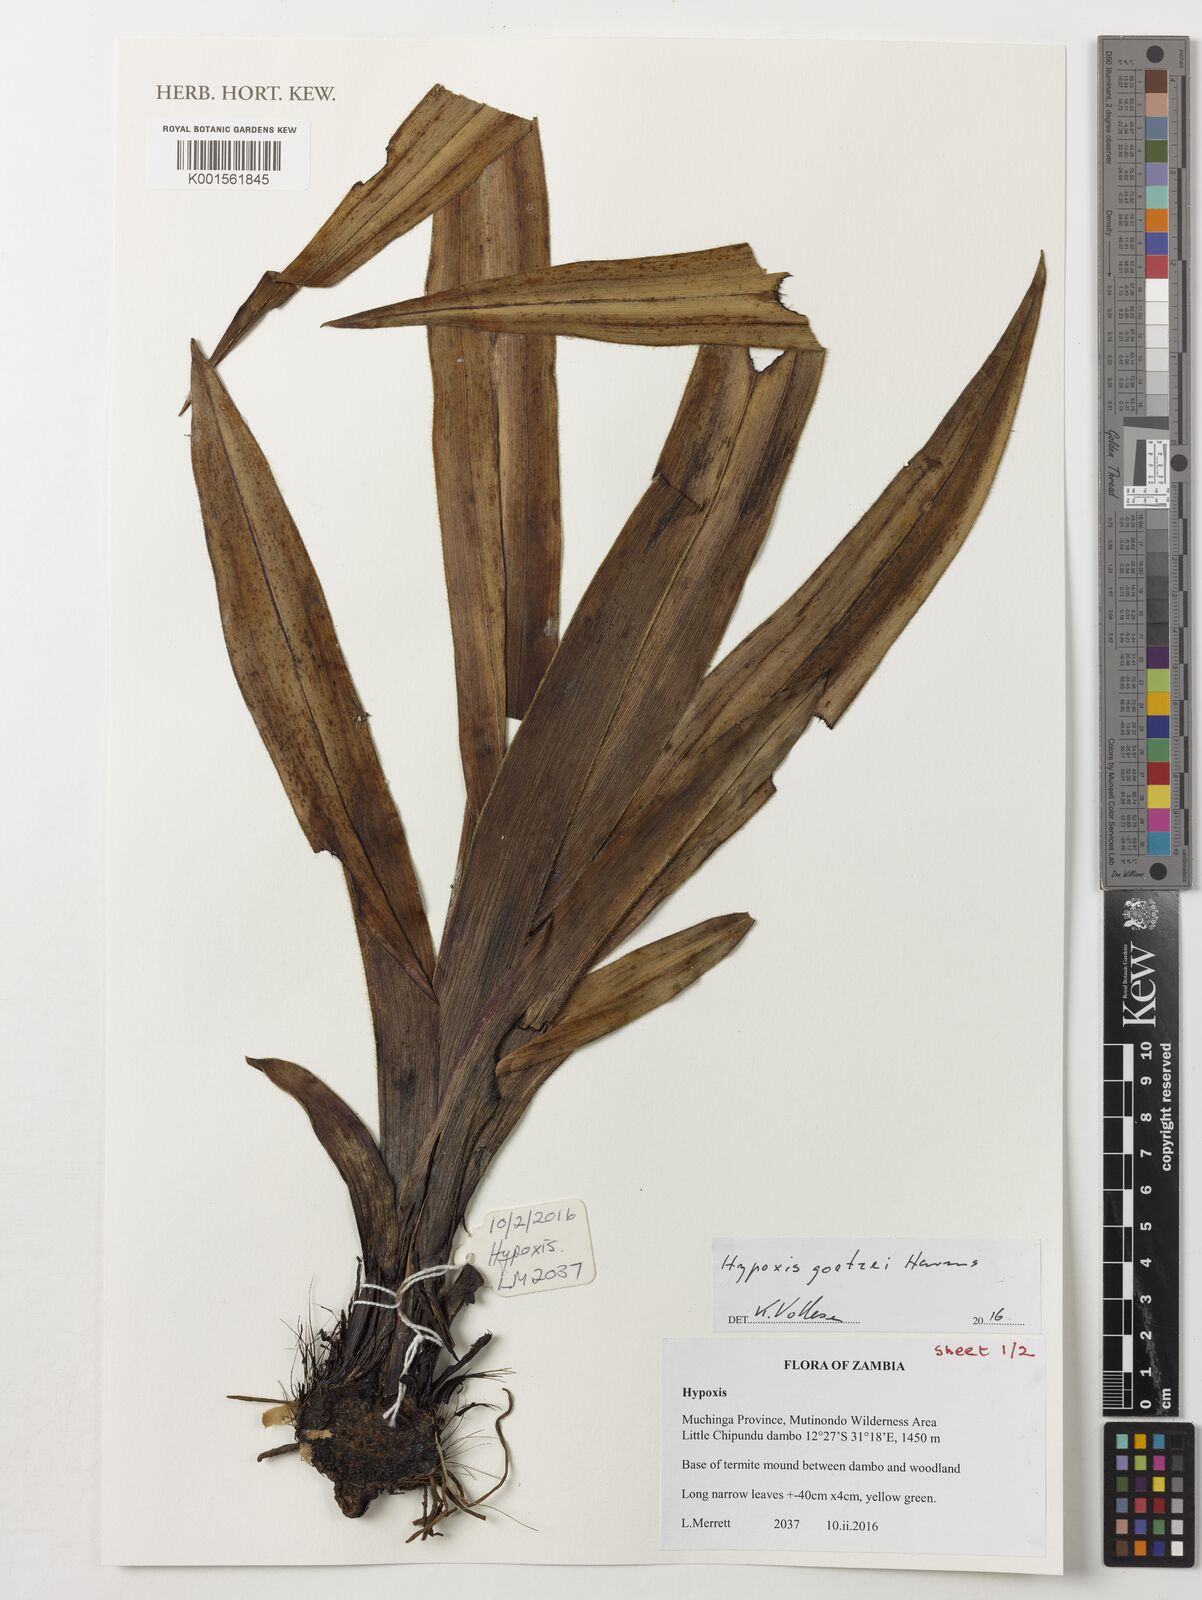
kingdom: Plantae
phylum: Tracheophyta
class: Liliopsida
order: Asparagales
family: Hypoxidaceae
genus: Hypoxis
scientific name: Hypoxis goetzei
